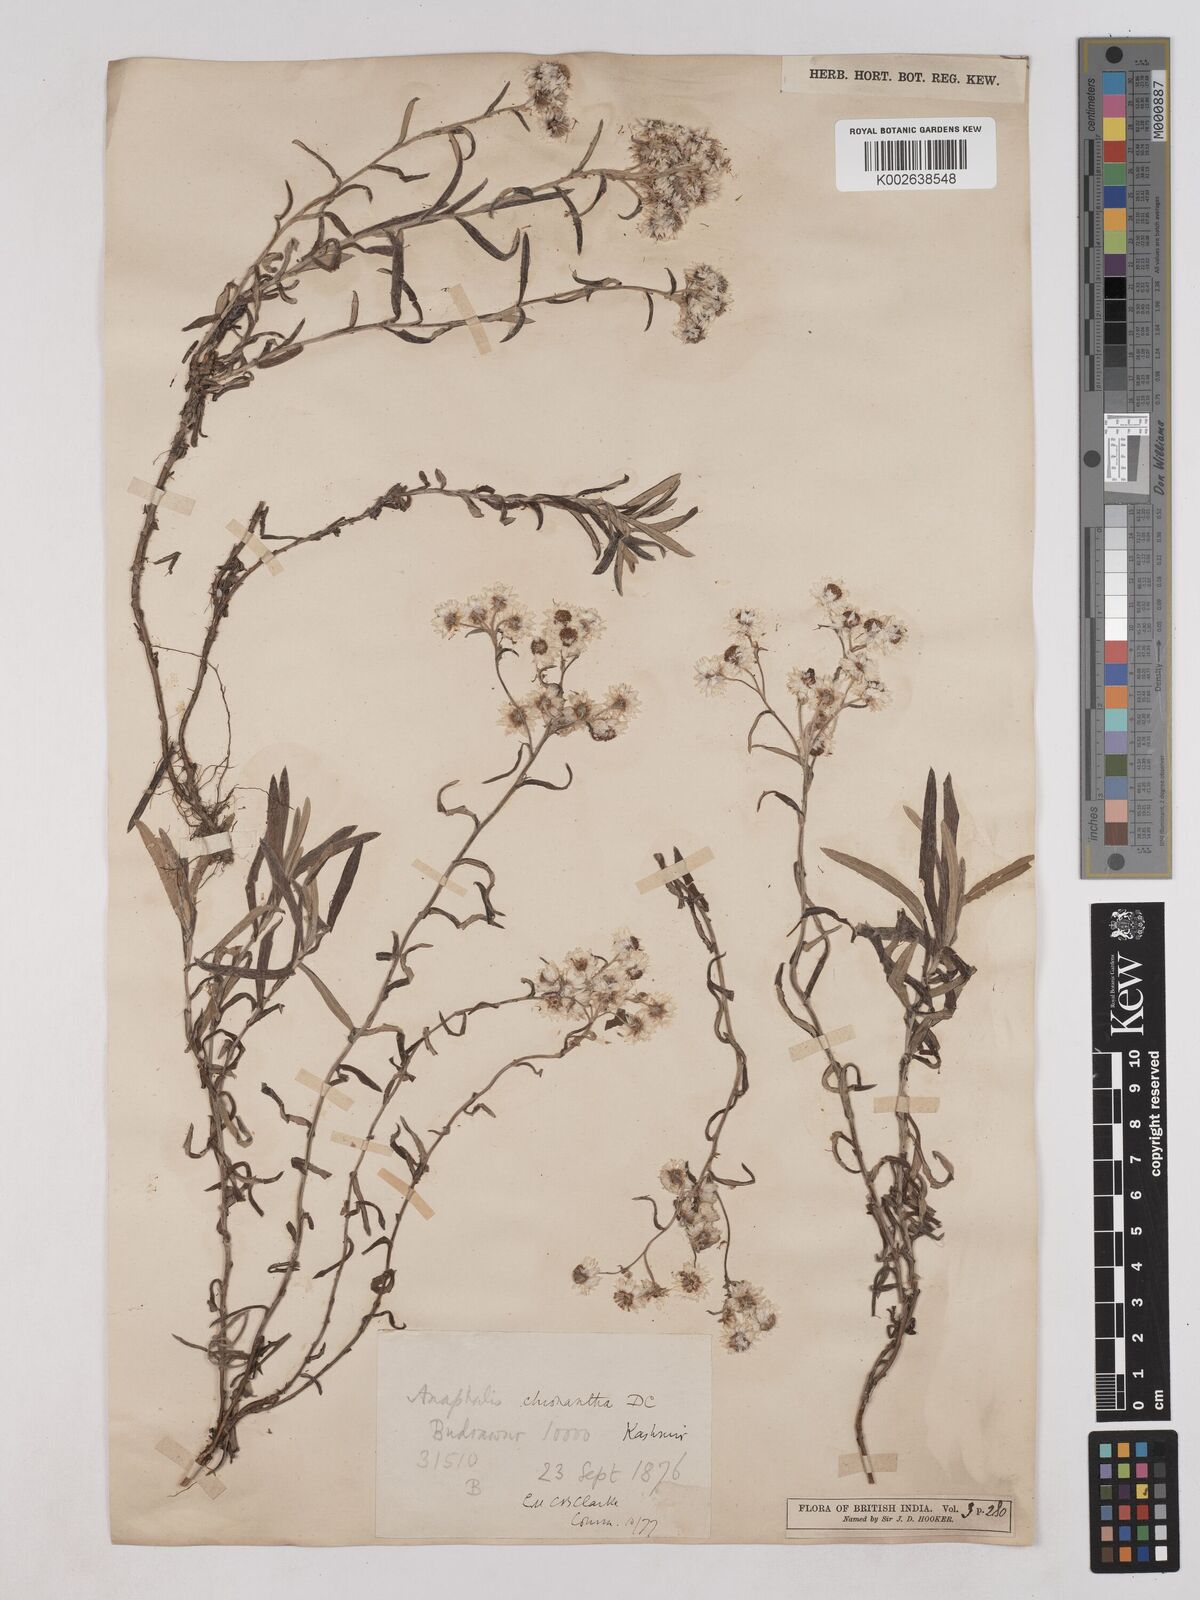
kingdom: Plantae
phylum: Tracheophyta
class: Magnoliopsida
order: Asterales
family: Asteraceae
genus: Anaphalis
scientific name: Anaphalis royleana
